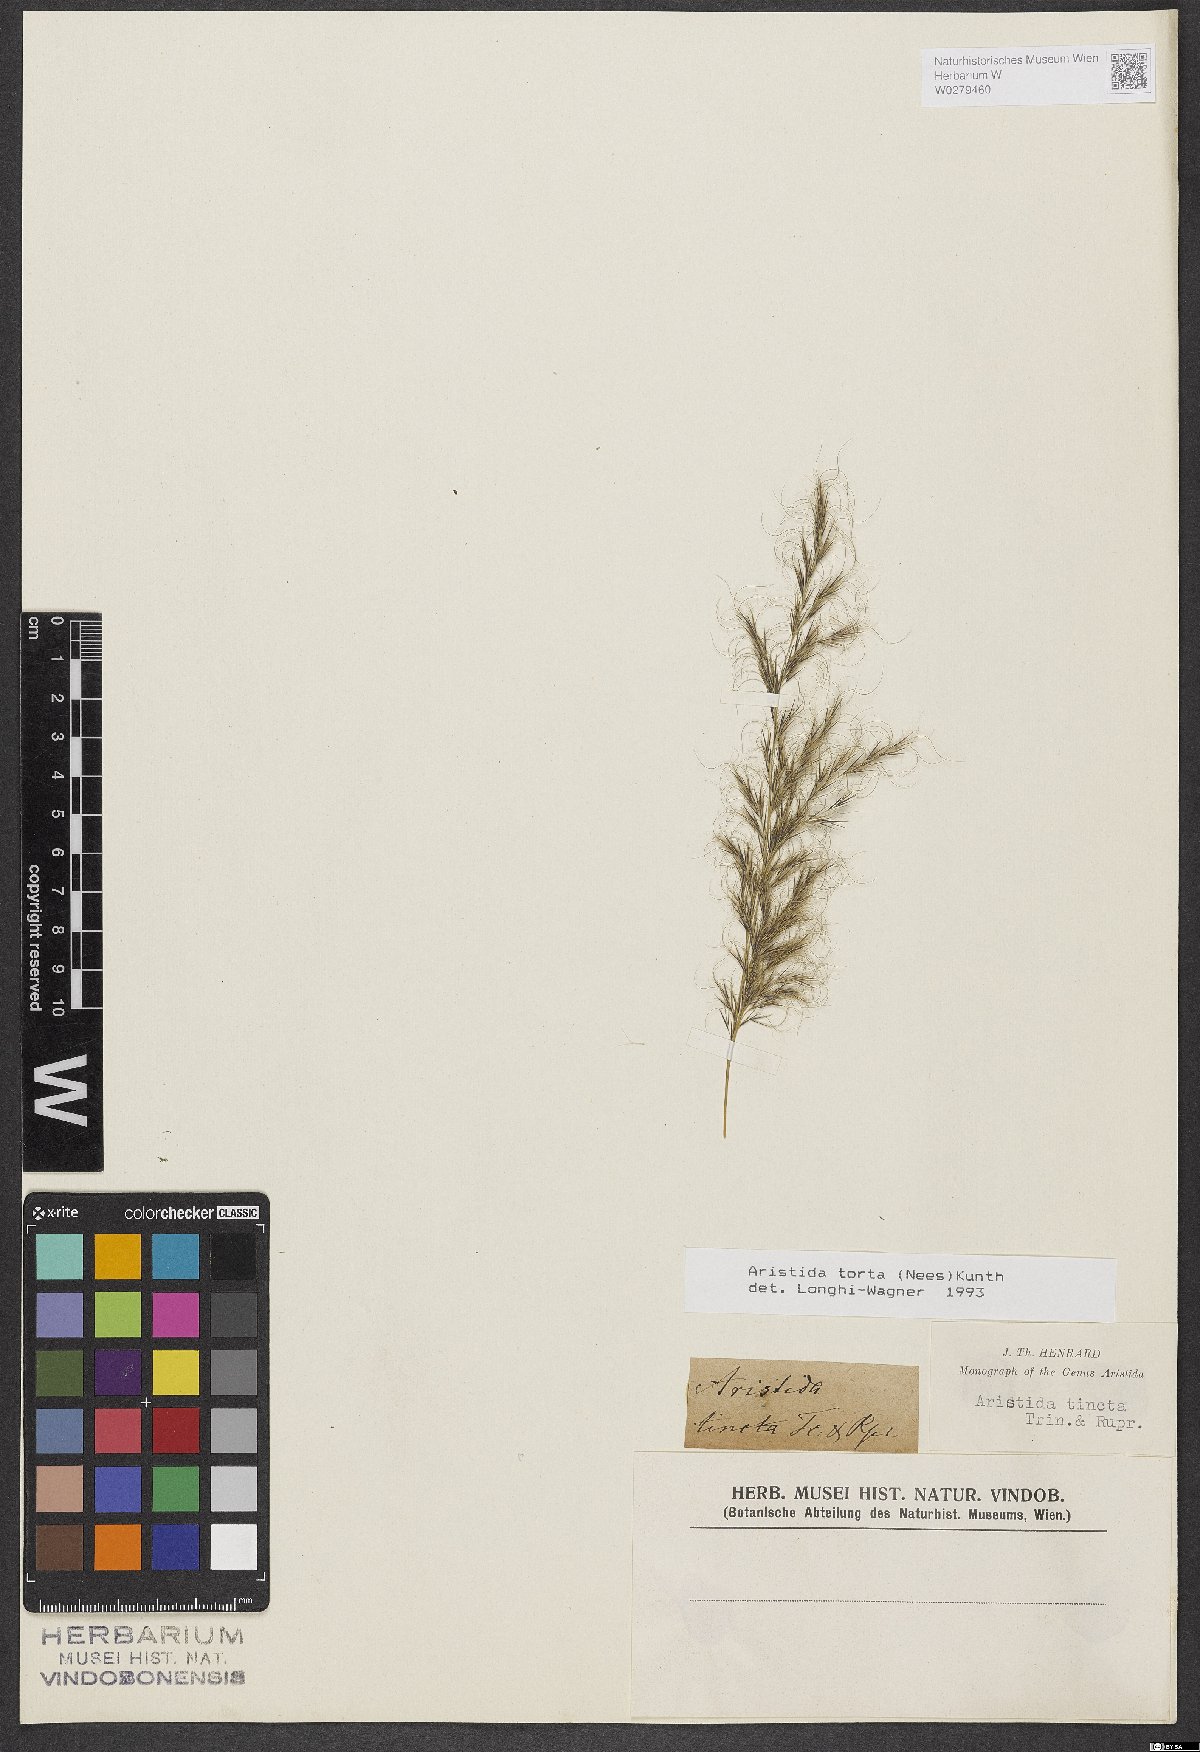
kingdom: Plantae
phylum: Tracheophyta
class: Liliopsida
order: Poales
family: Poaceae
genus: Aristida
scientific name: Aristida torta
